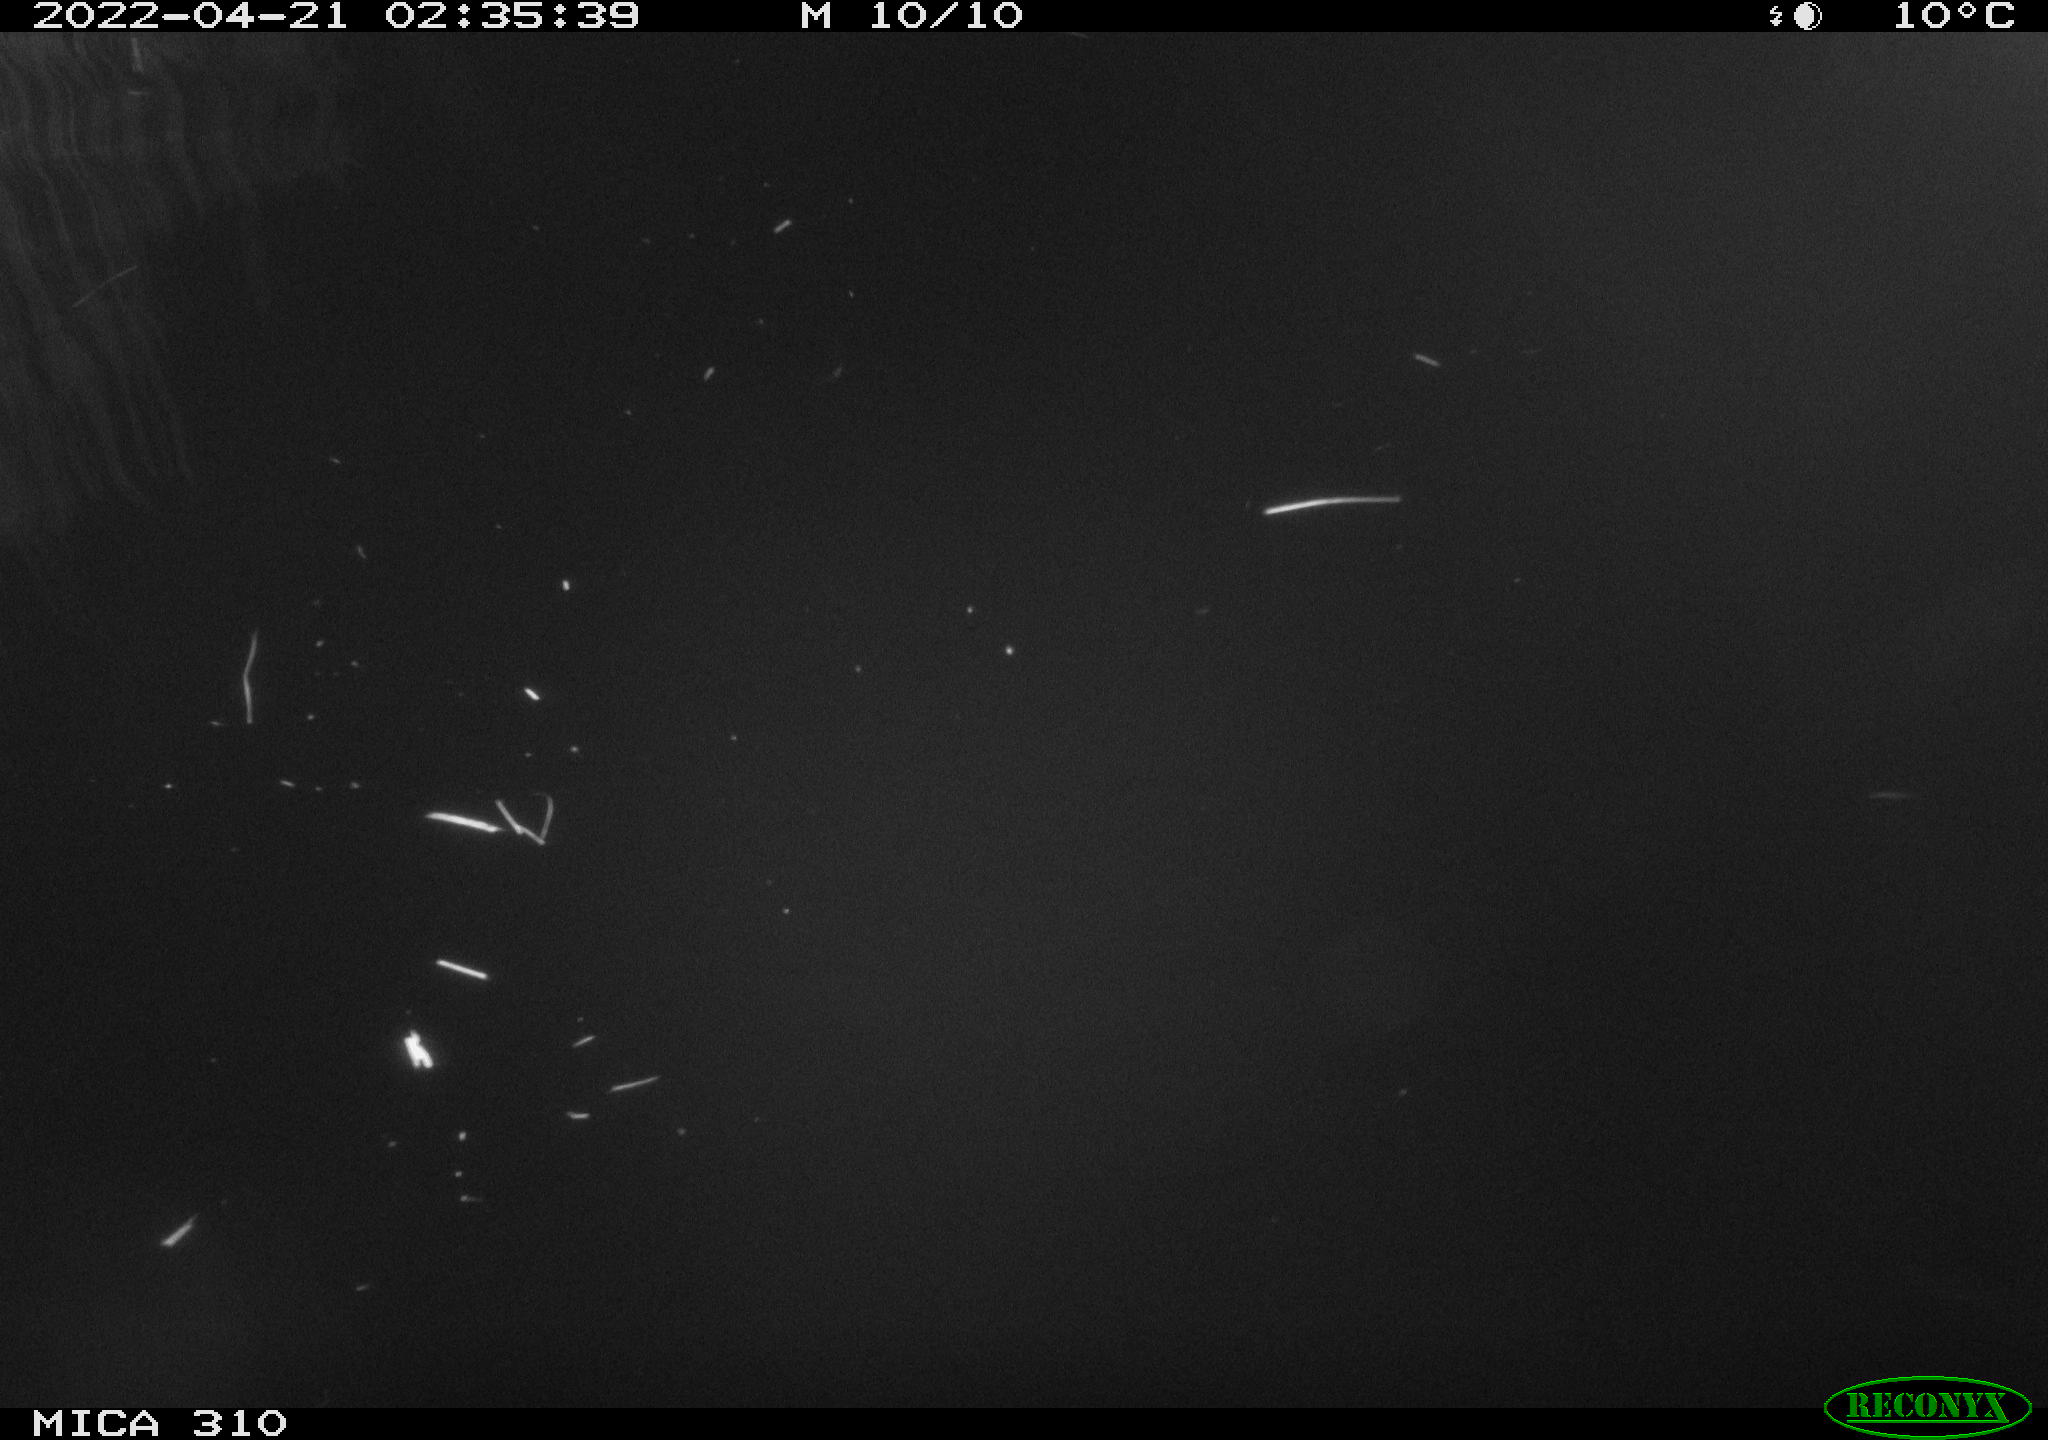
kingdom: Animalia
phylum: Chordata
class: Aves
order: Anseriformes
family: Anatidae
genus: Anas
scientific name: Anas platyrhynchos
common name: Mallard
